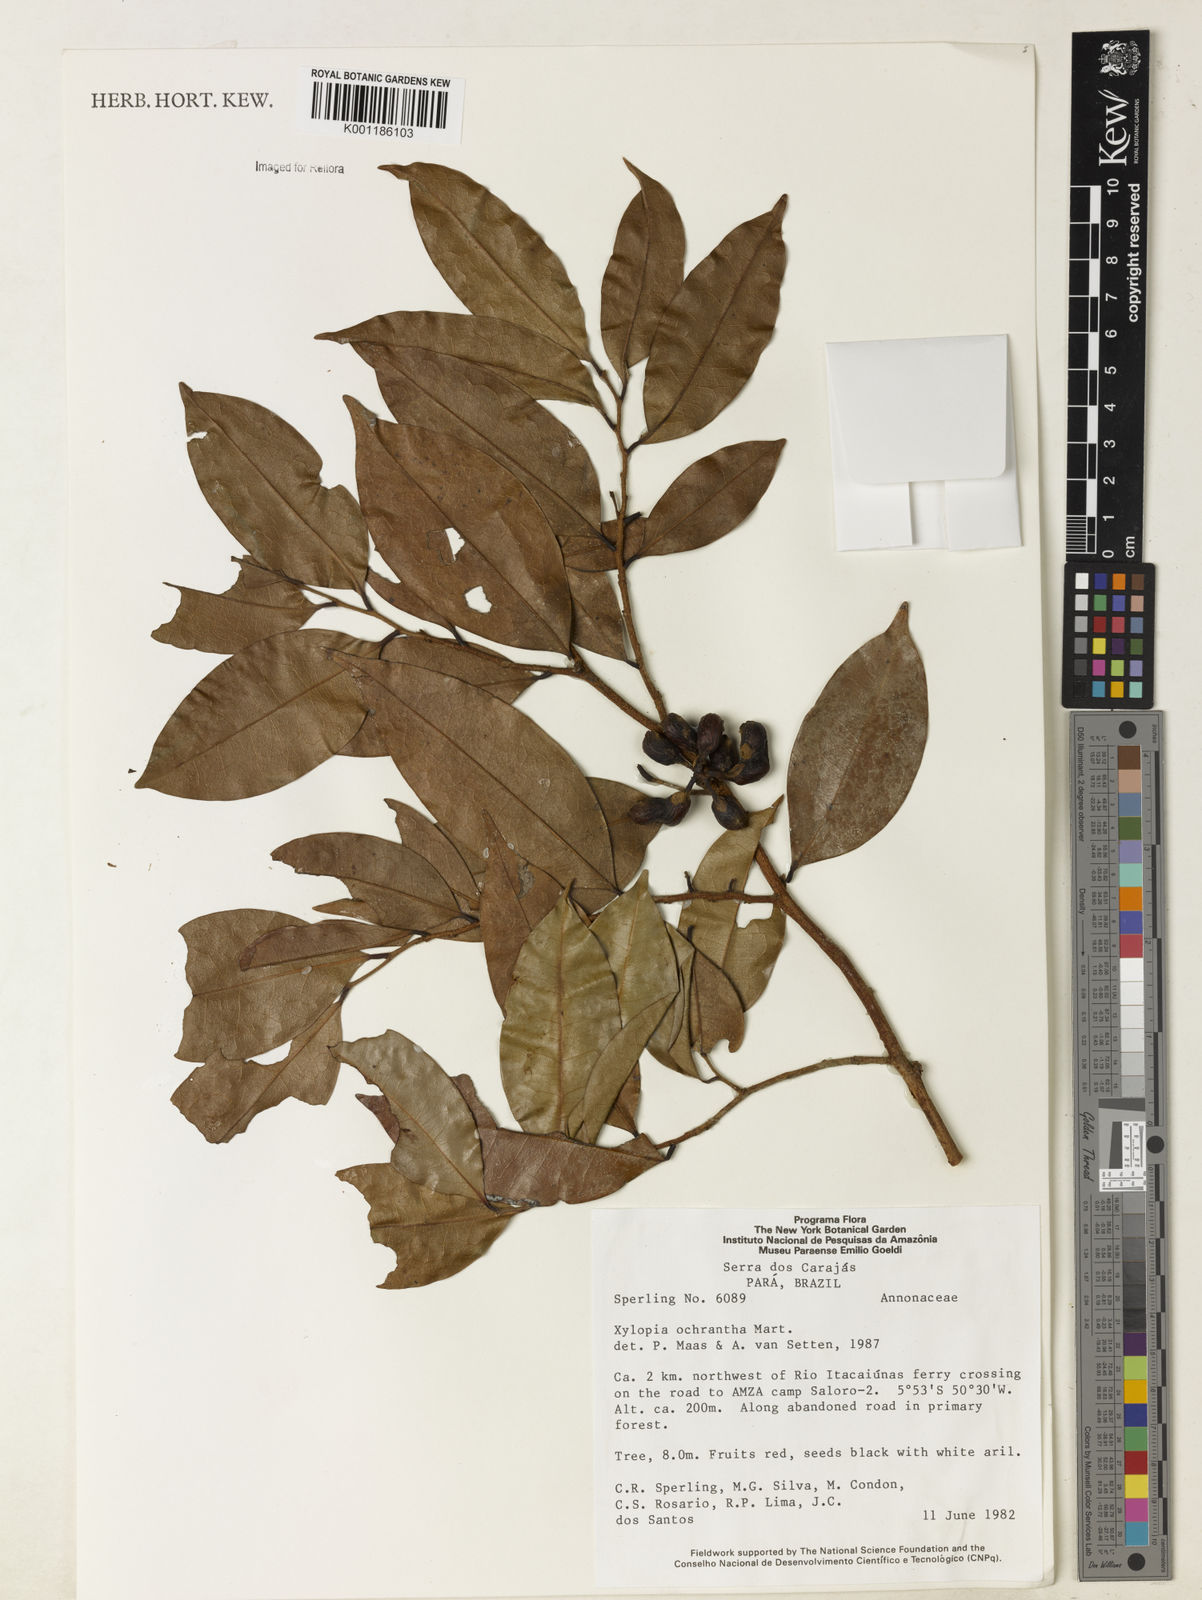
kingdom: Plantae
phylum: Tracheophyta
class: Magnoliopsida
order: Magnoliales
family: Annonaceae
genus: Xylopia
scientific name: Xylopia ochrantha
